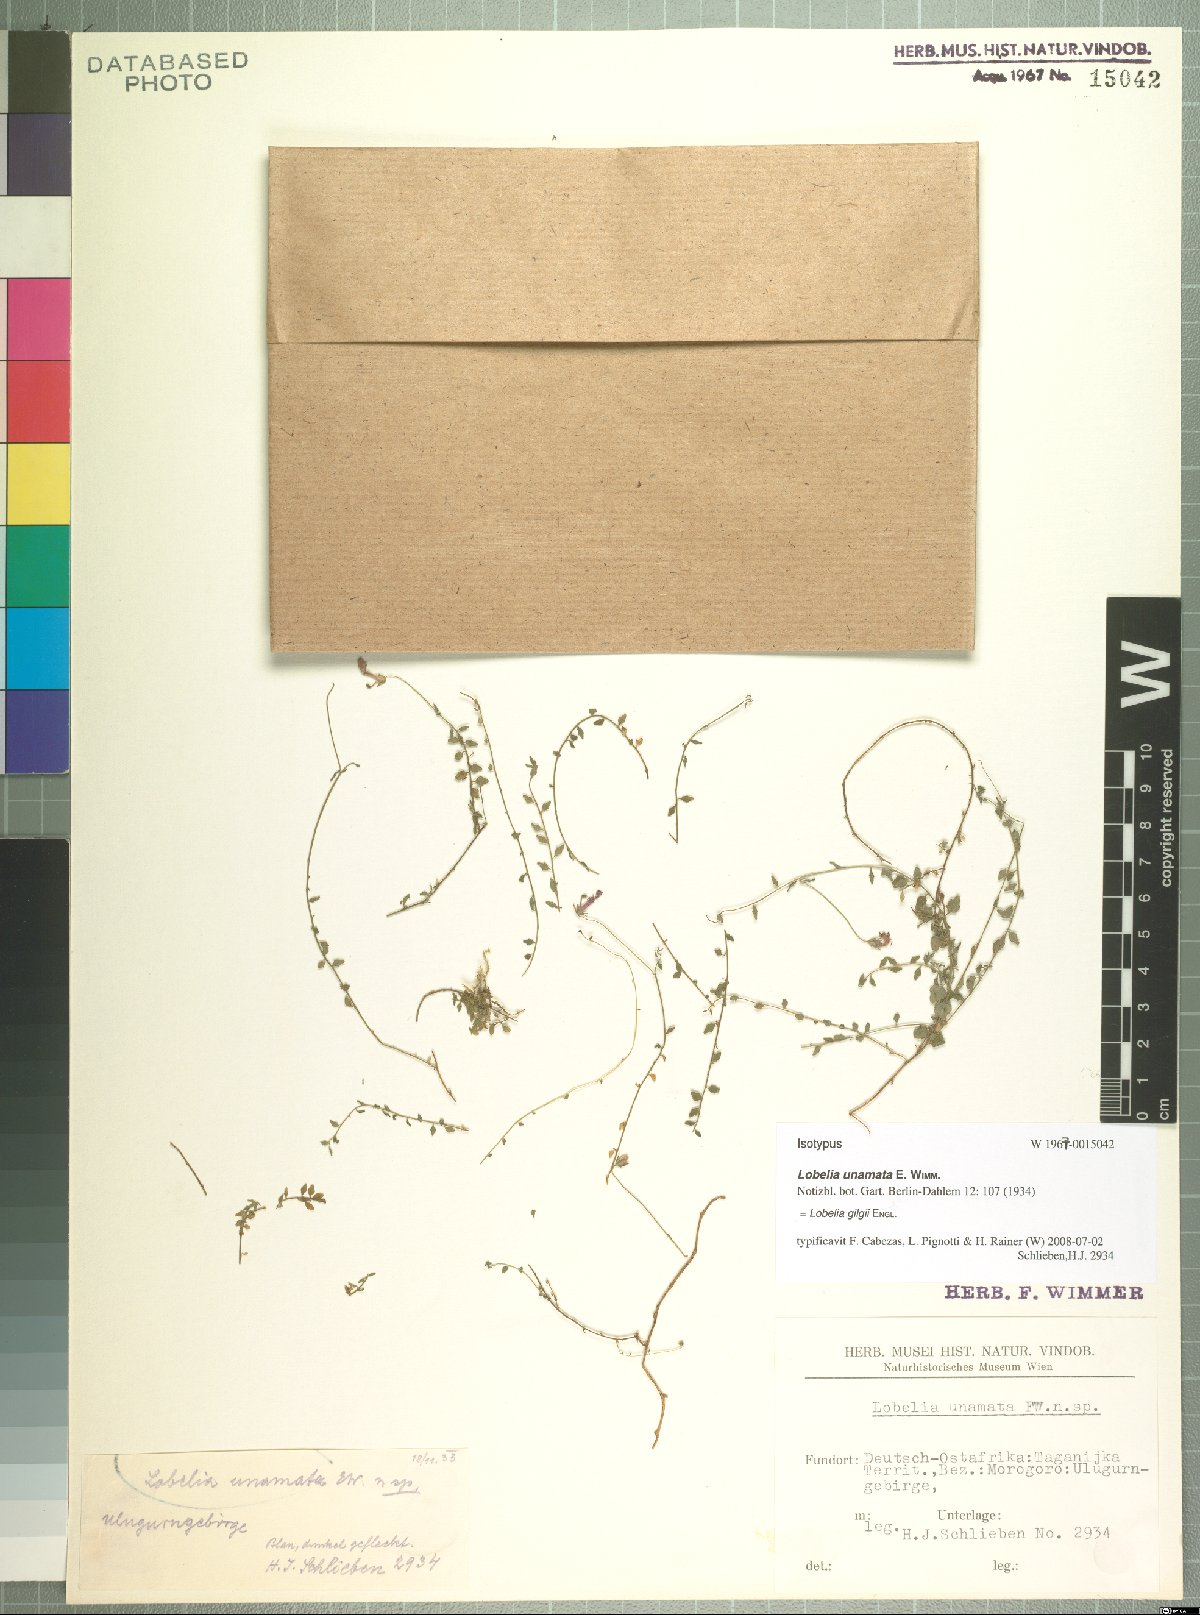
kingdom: Plantae
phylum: Tracheophyta
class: Magnoliopsida
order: Asterales
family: Campanulaceae
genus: Lobelia
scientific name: Lobelia gilgii
